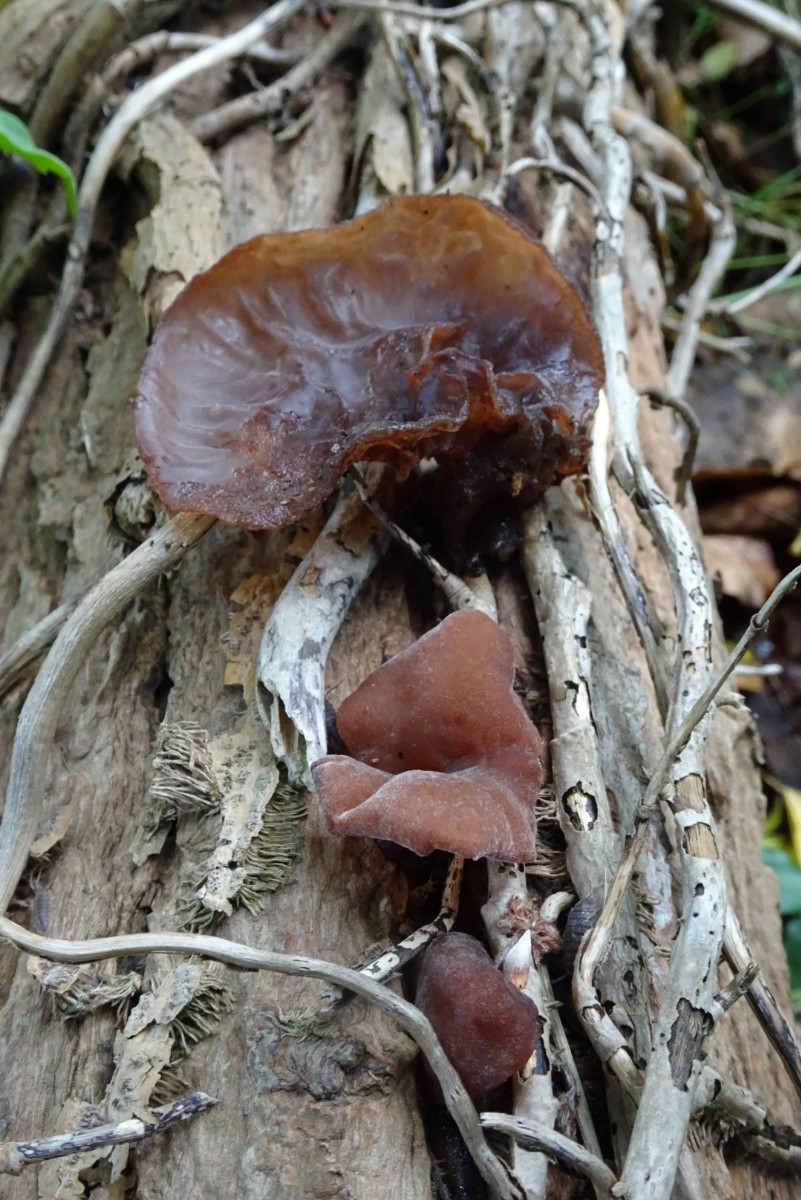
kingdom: Fungi
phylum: Basidiomycota
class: Agaricomycetes
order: Auriculariales
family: Auriculariaceae
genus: Auricularia
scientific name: Auricularia auricula-judae
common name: almindelig judasøre
